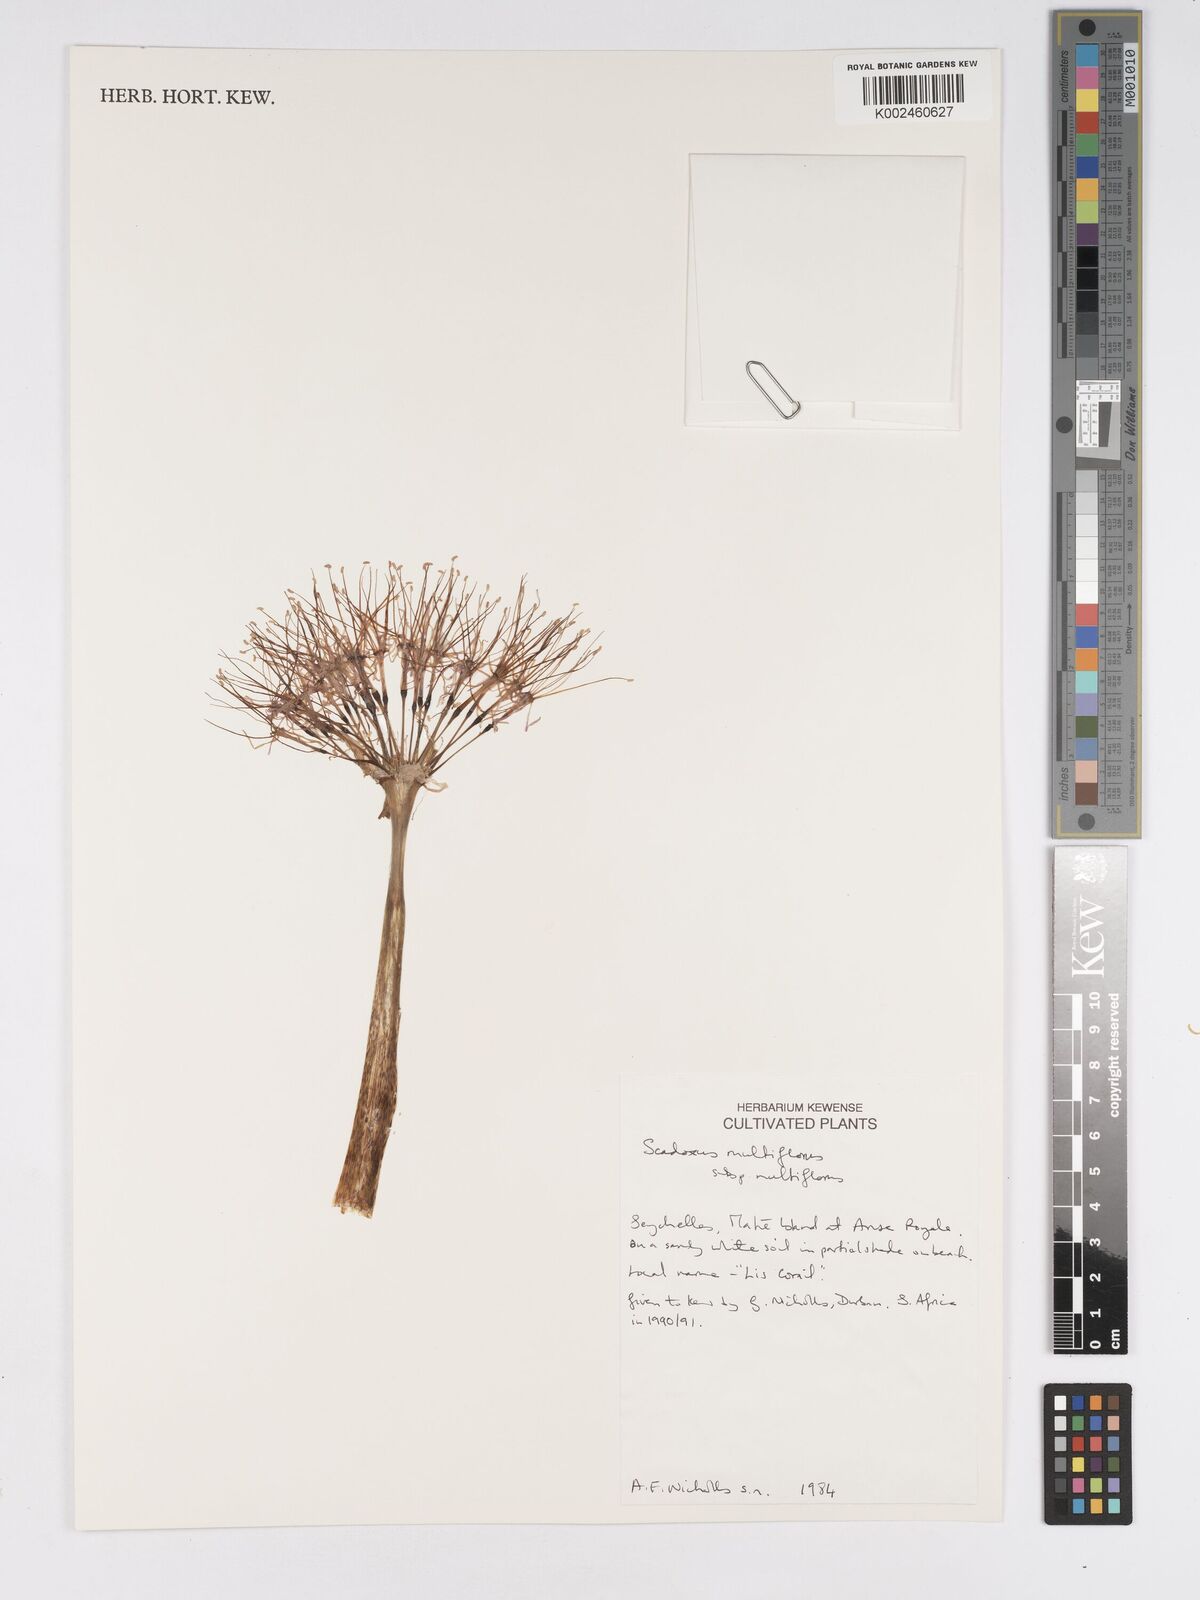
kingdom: Plantae
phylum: Tracheophyta
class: Liliopsida
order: Asparagales
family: Amaryllidaceae
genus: Scadoxus
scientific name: Scadoxus multiflorus
